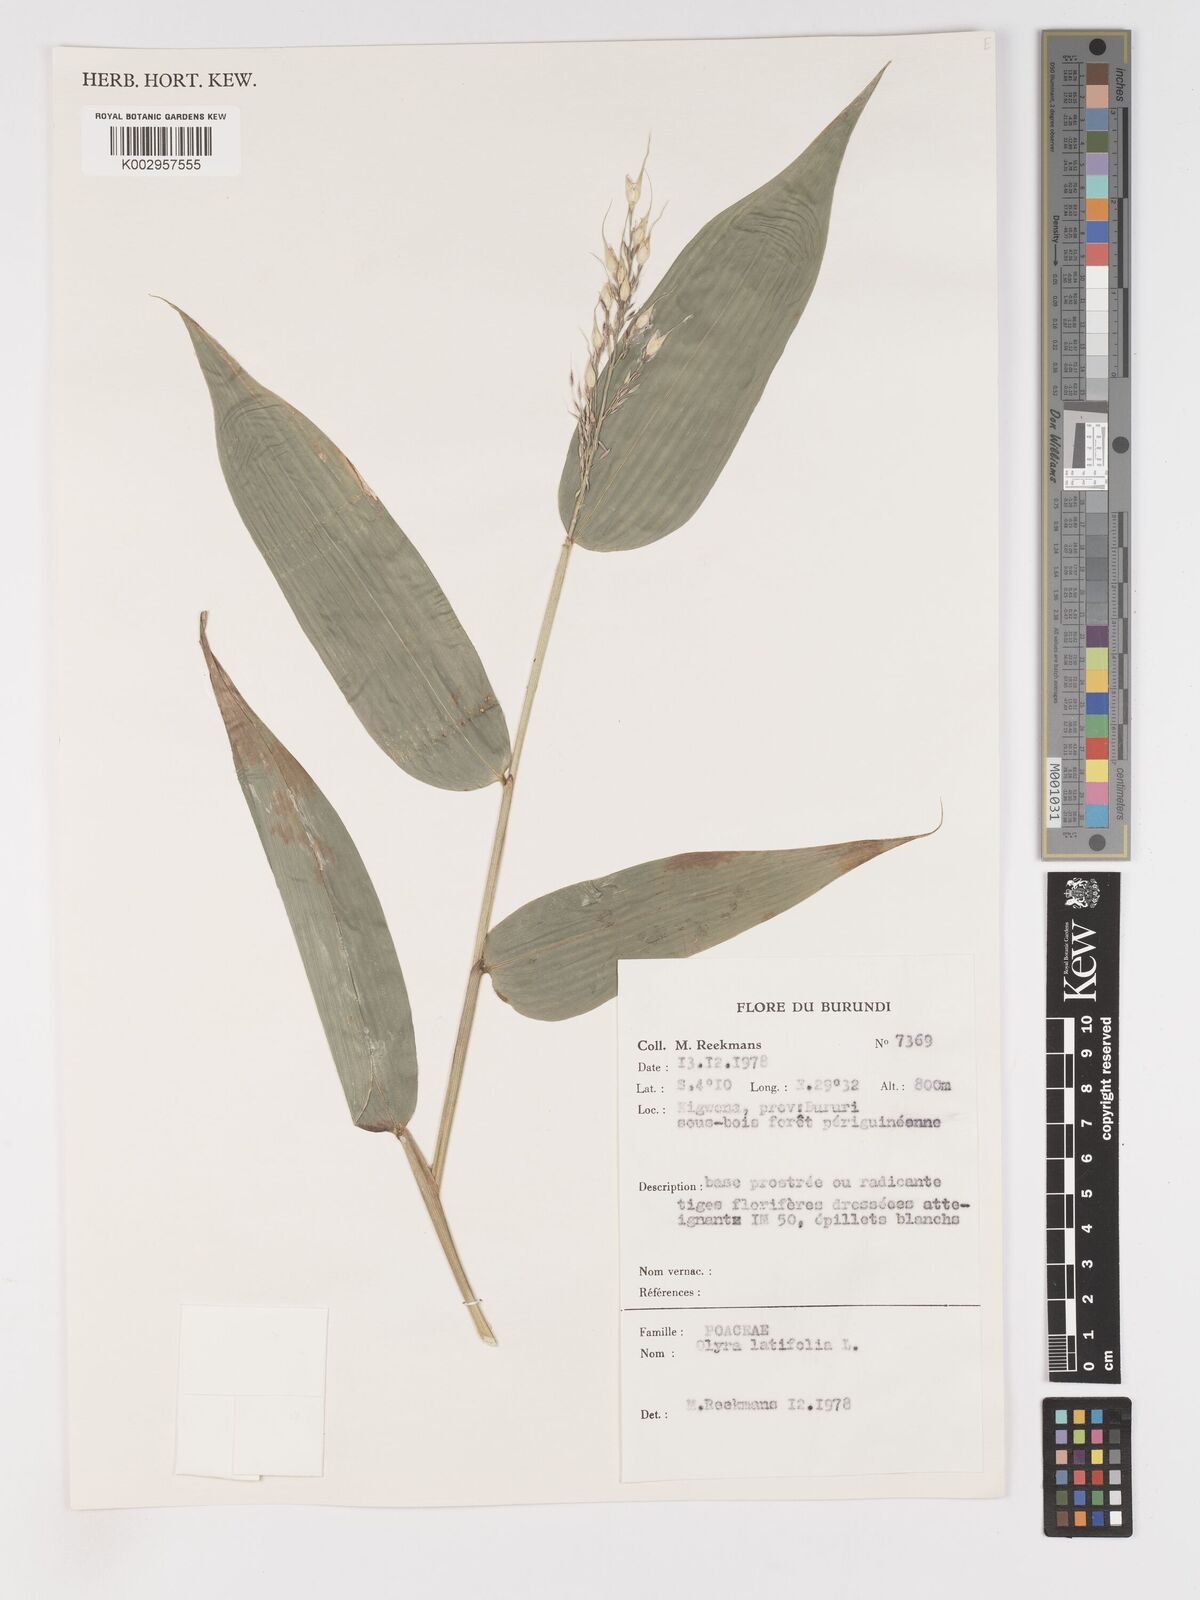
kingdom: Plantae
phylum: Tracheophyta
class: Liliopsida
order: Poales
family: Poaceae
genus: Olyra
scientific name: Olyra latifolia
